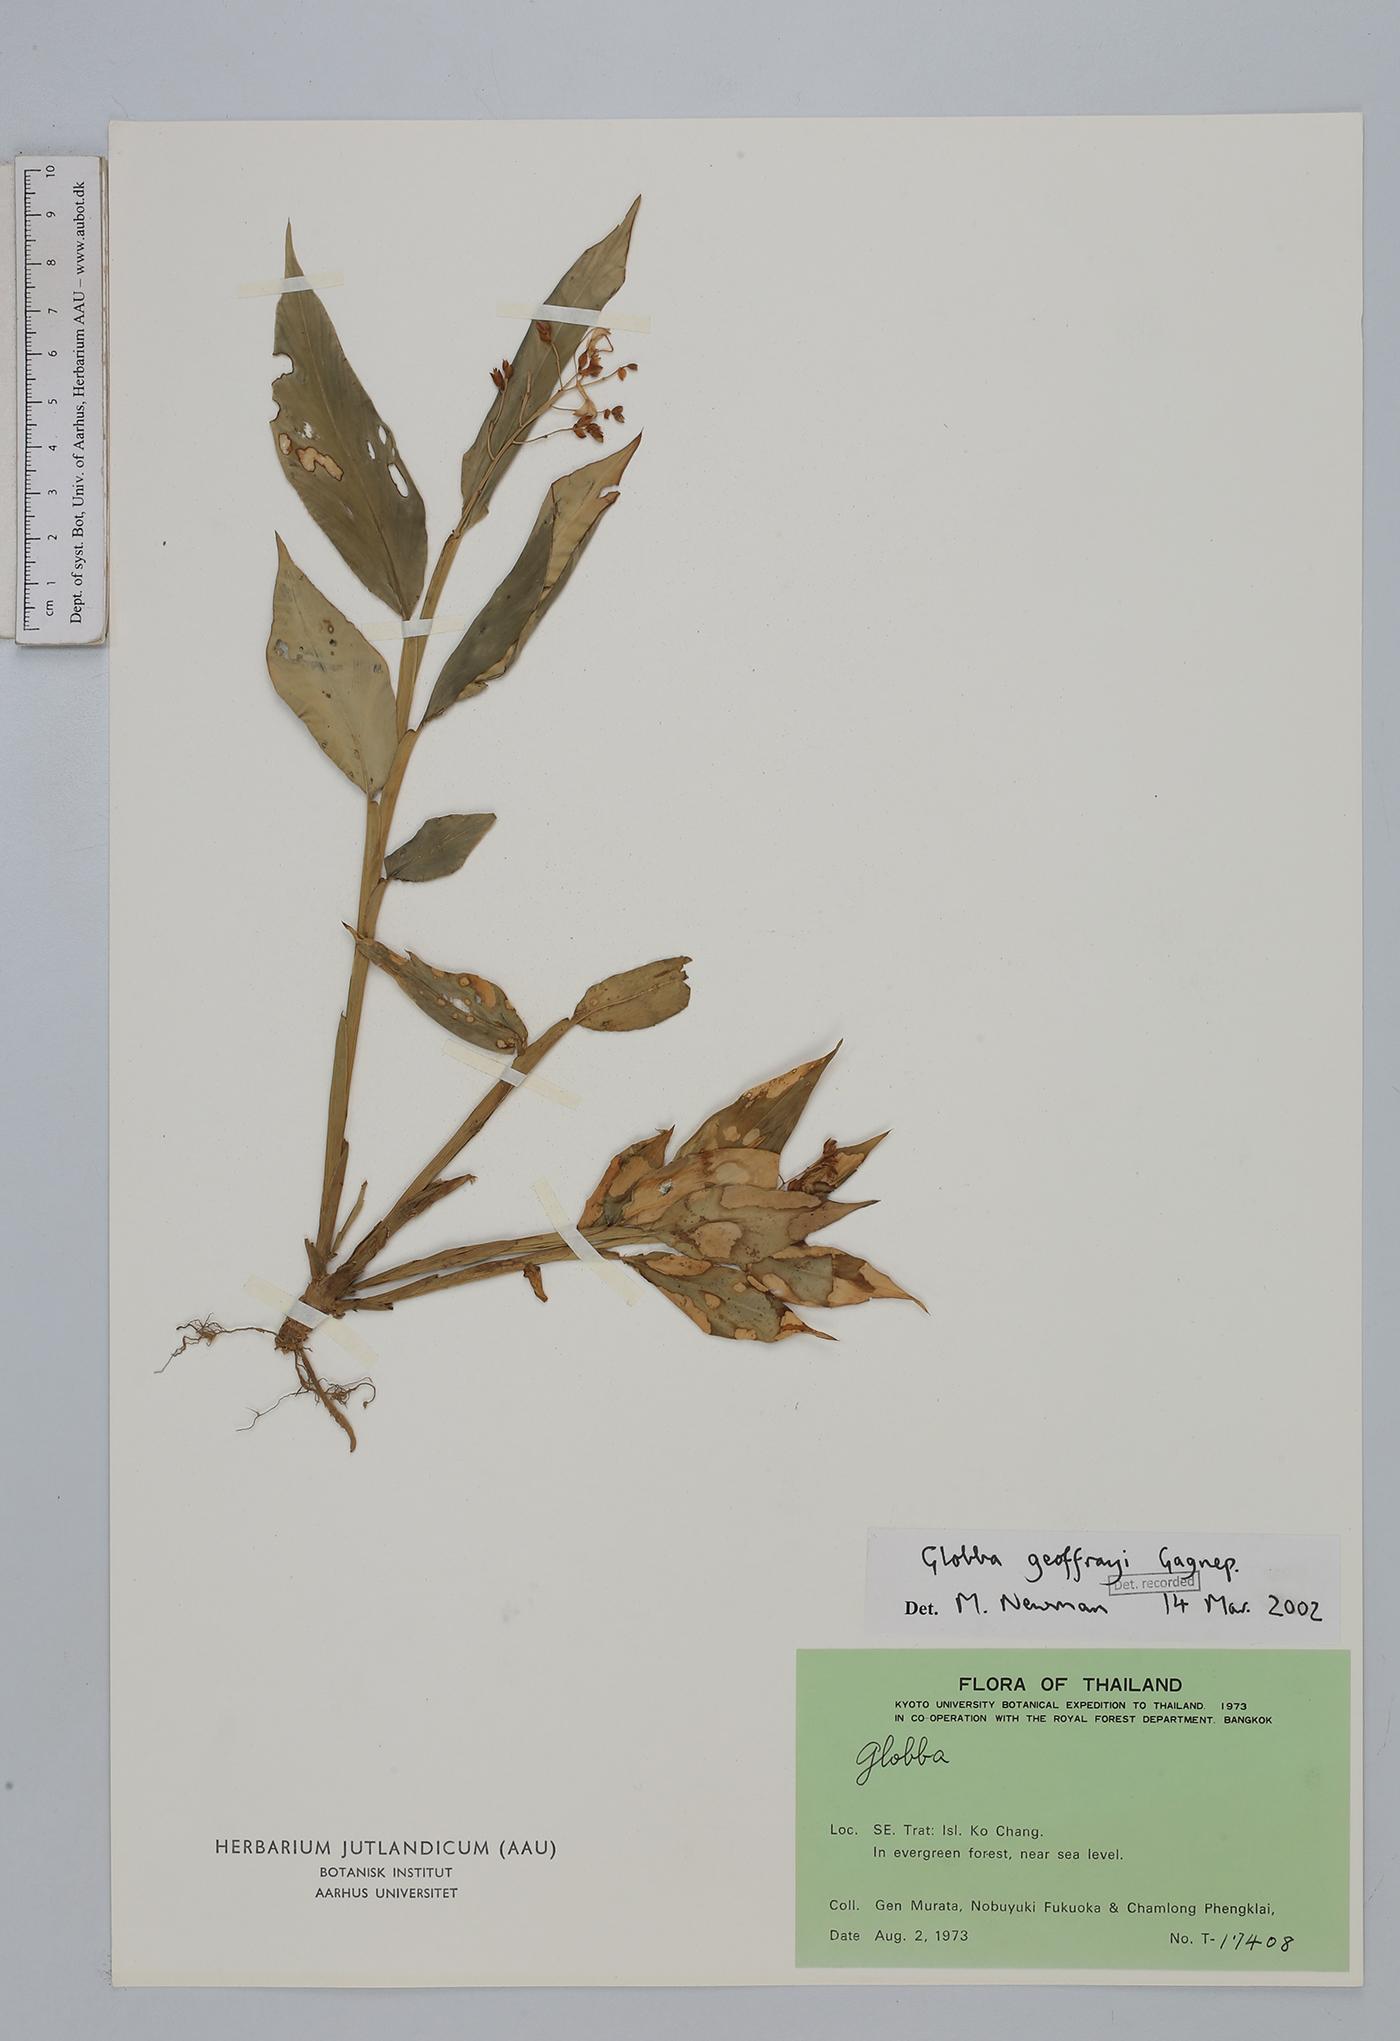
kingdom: Plantae
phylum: Tracheophyta
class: Liliopsida
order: Zingiberales
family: Zingiberaceae
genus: Globba
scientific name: Globba geoffrayi
